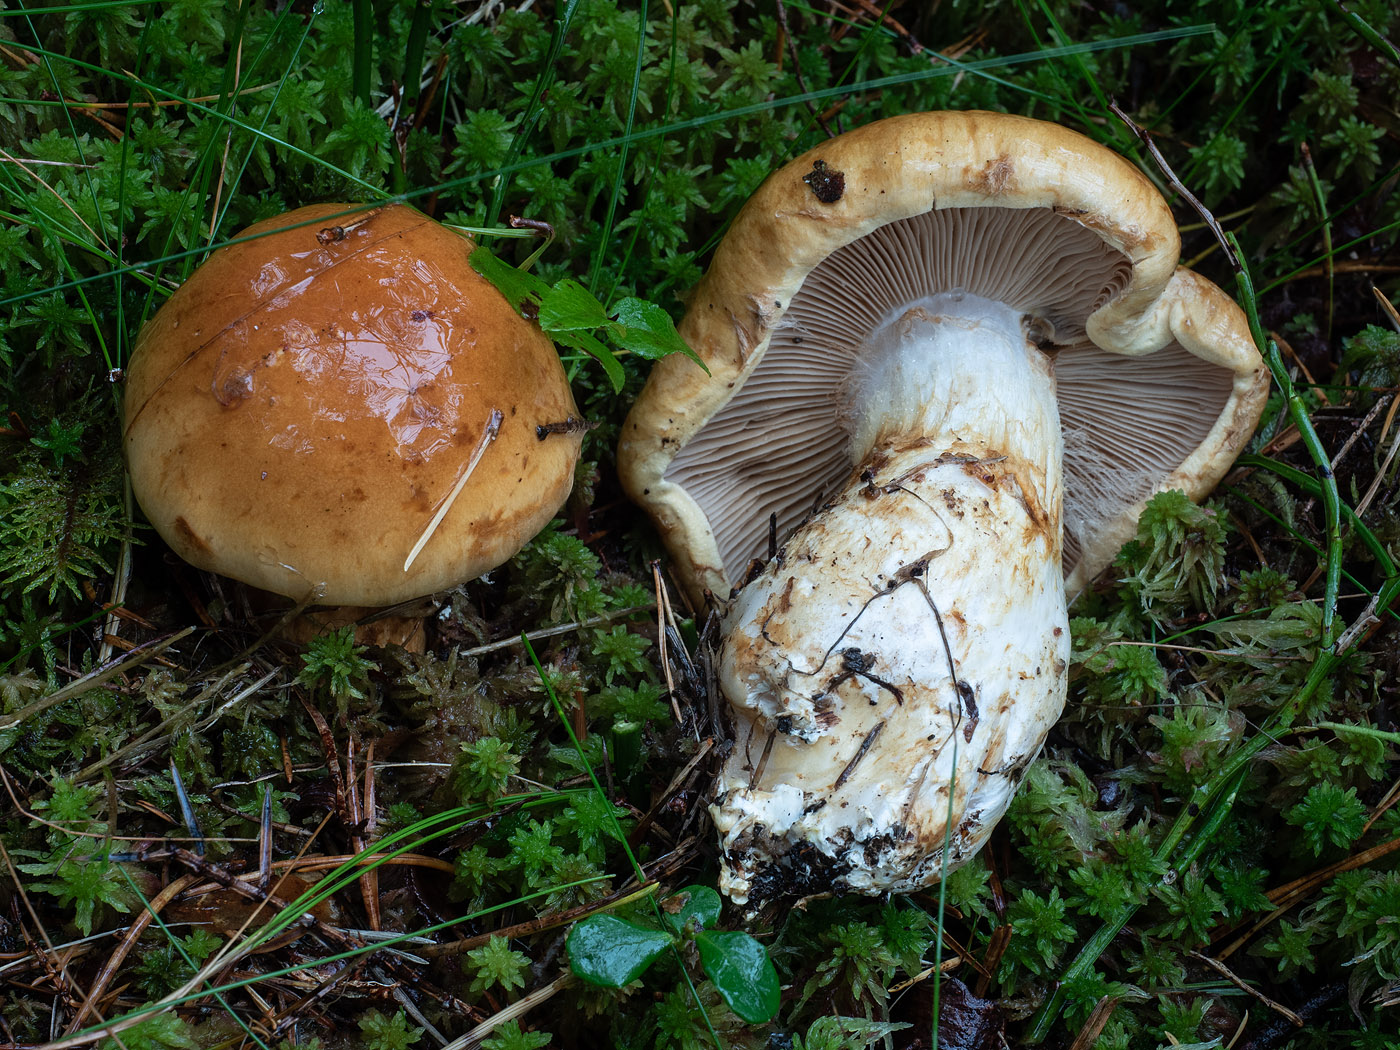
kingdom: Fungi
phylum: Basidiomycota
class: Agaricomycetes
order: Agaricales
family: Cortinariaceae
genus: Phlegmacium
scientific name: Phlegmacium saginum
